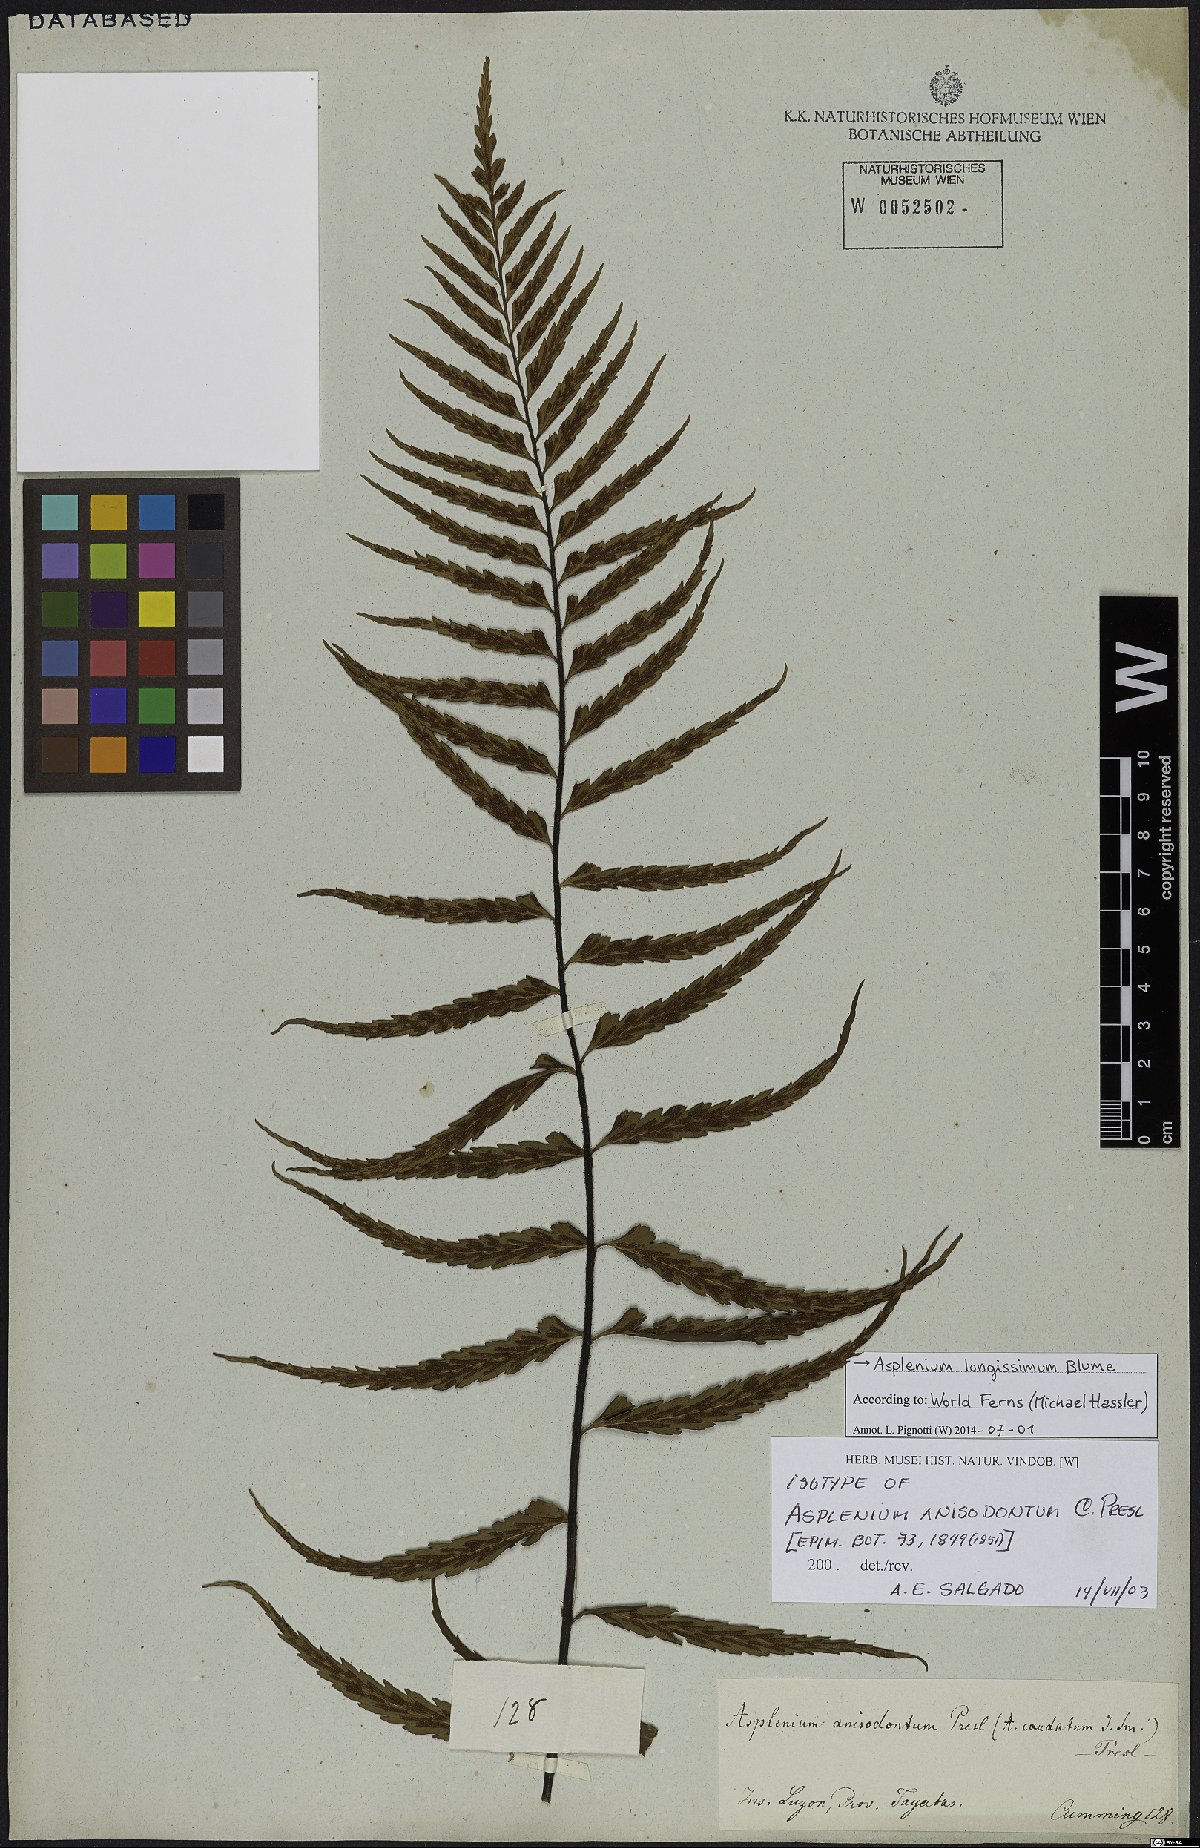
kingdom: Plantae
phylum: Tracheophyta
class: Polypodiopsida
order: Polypodiales
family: Aspleniaceae
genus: Asplenium
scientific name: Asplenium longissimum
